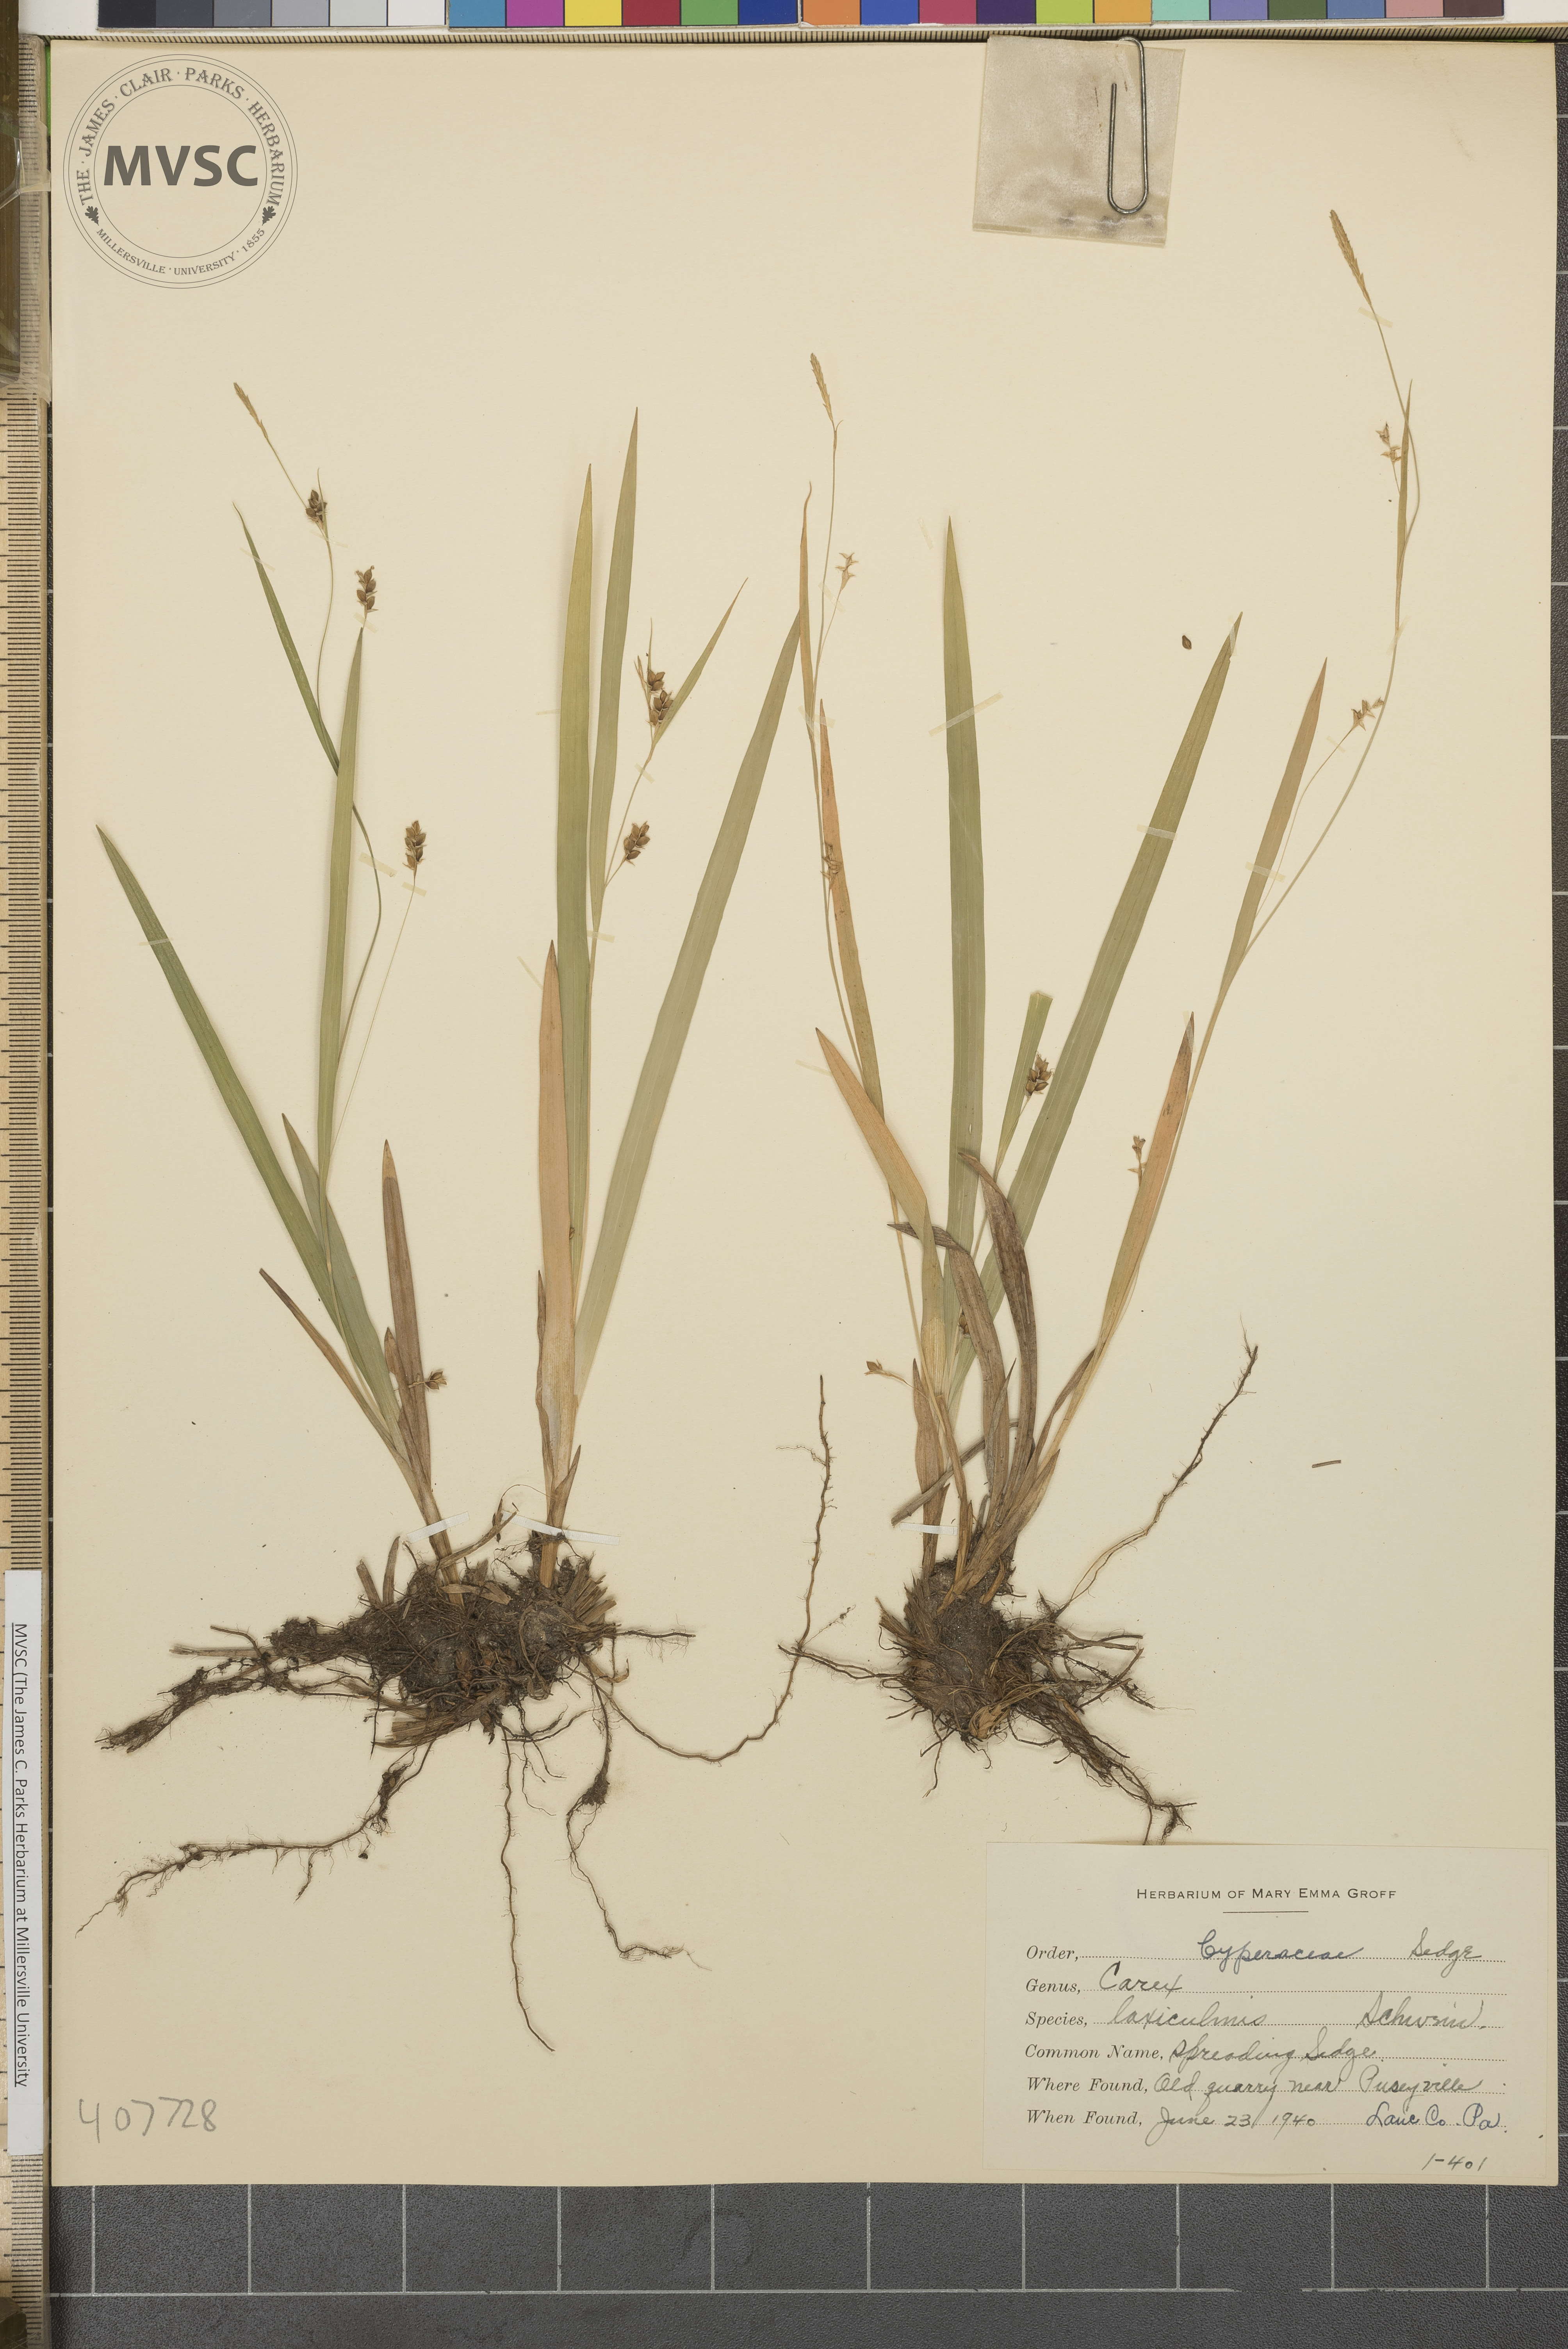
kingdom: Plantae
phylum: Tracheophyta
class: Liliopsida
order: Poales
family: Cyperaceae
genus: Carex
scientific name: Carex laxiculmis
